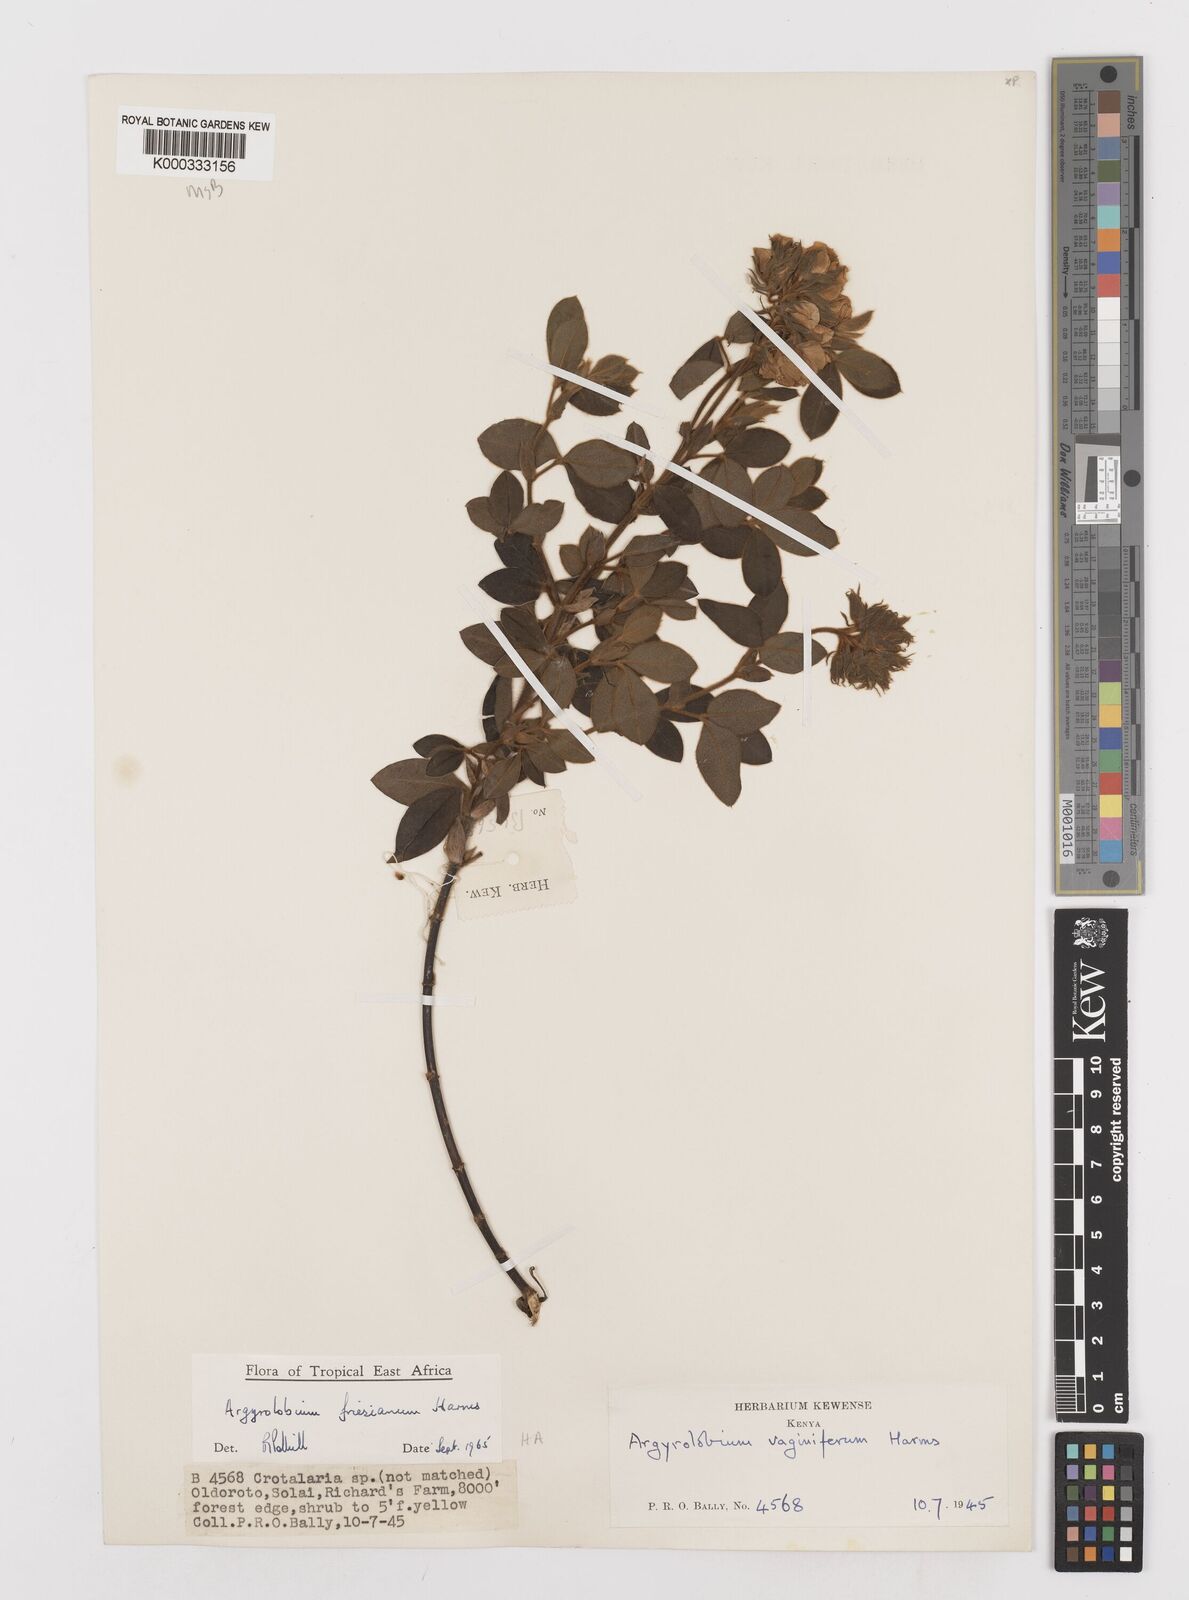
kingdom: Plantae
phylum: Tracheophyta
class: Magnoliopsida
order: Fabales
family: Fabaceae
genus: Argyrolobium
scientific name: Argyrolobium friesianum
